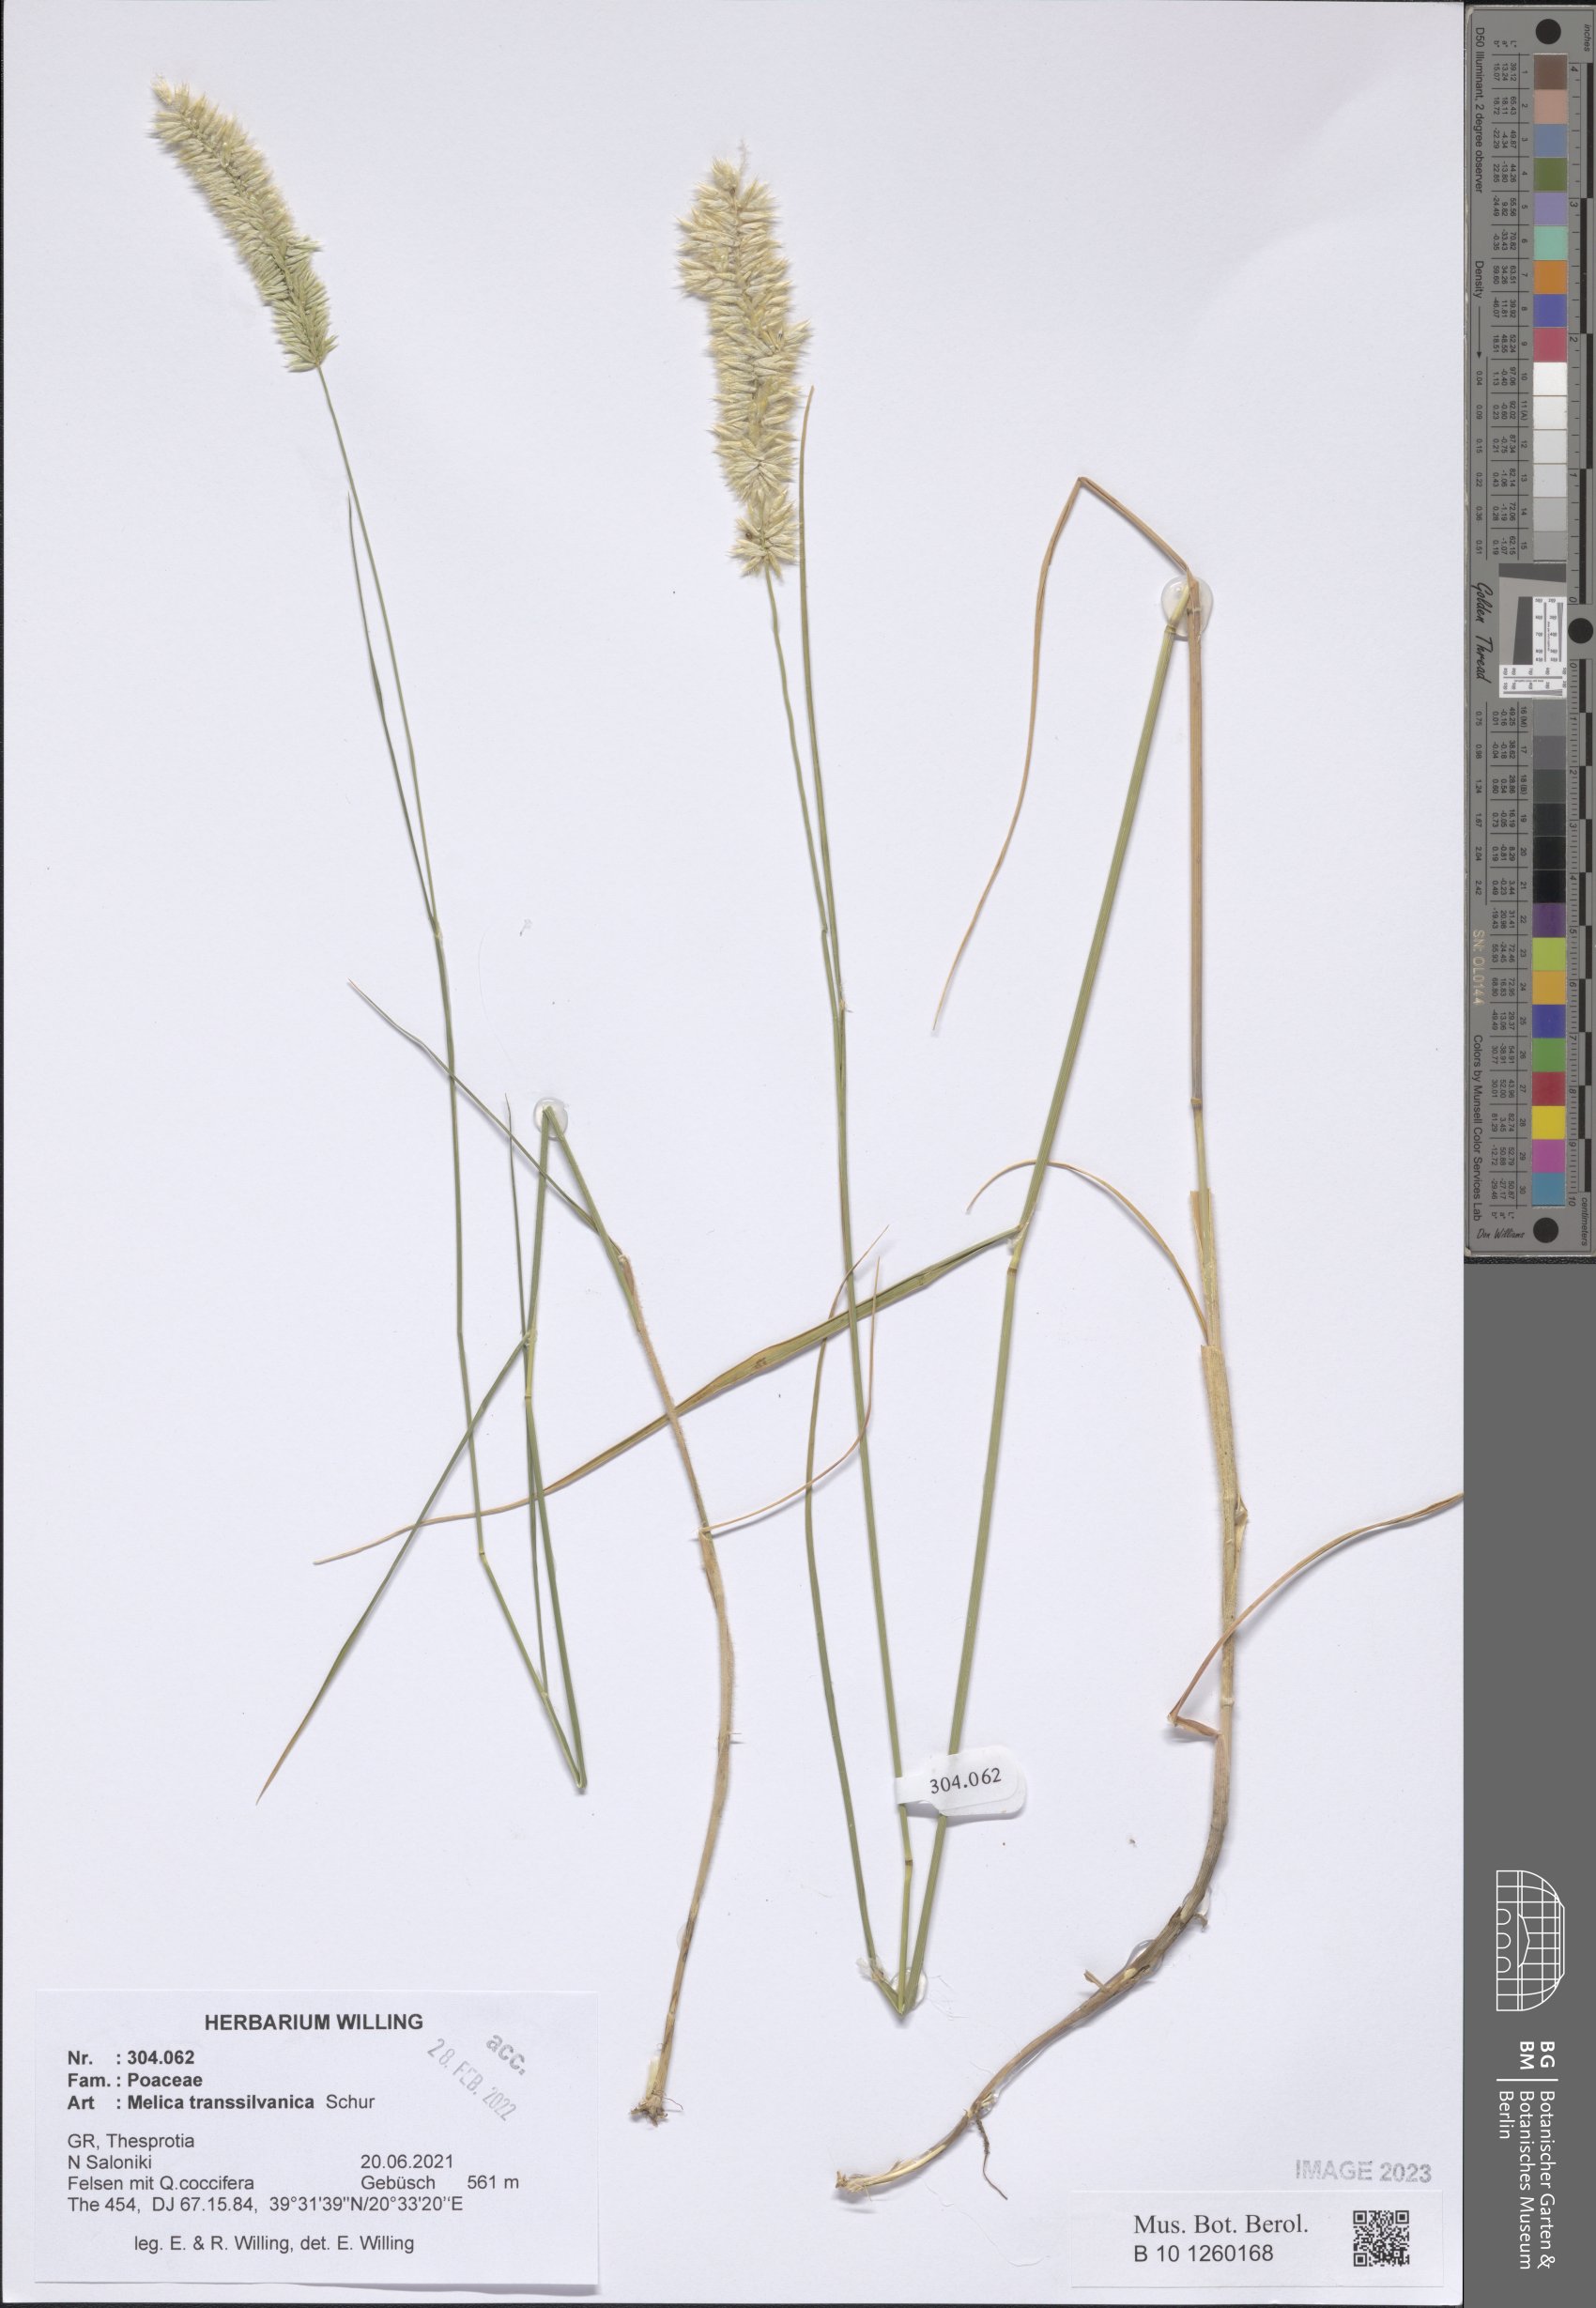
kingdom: Plantae
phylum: Tracheophyta
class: Liliopsida
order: Poales
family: Poaceae
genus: Melica
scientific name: Melica transsilvanica
